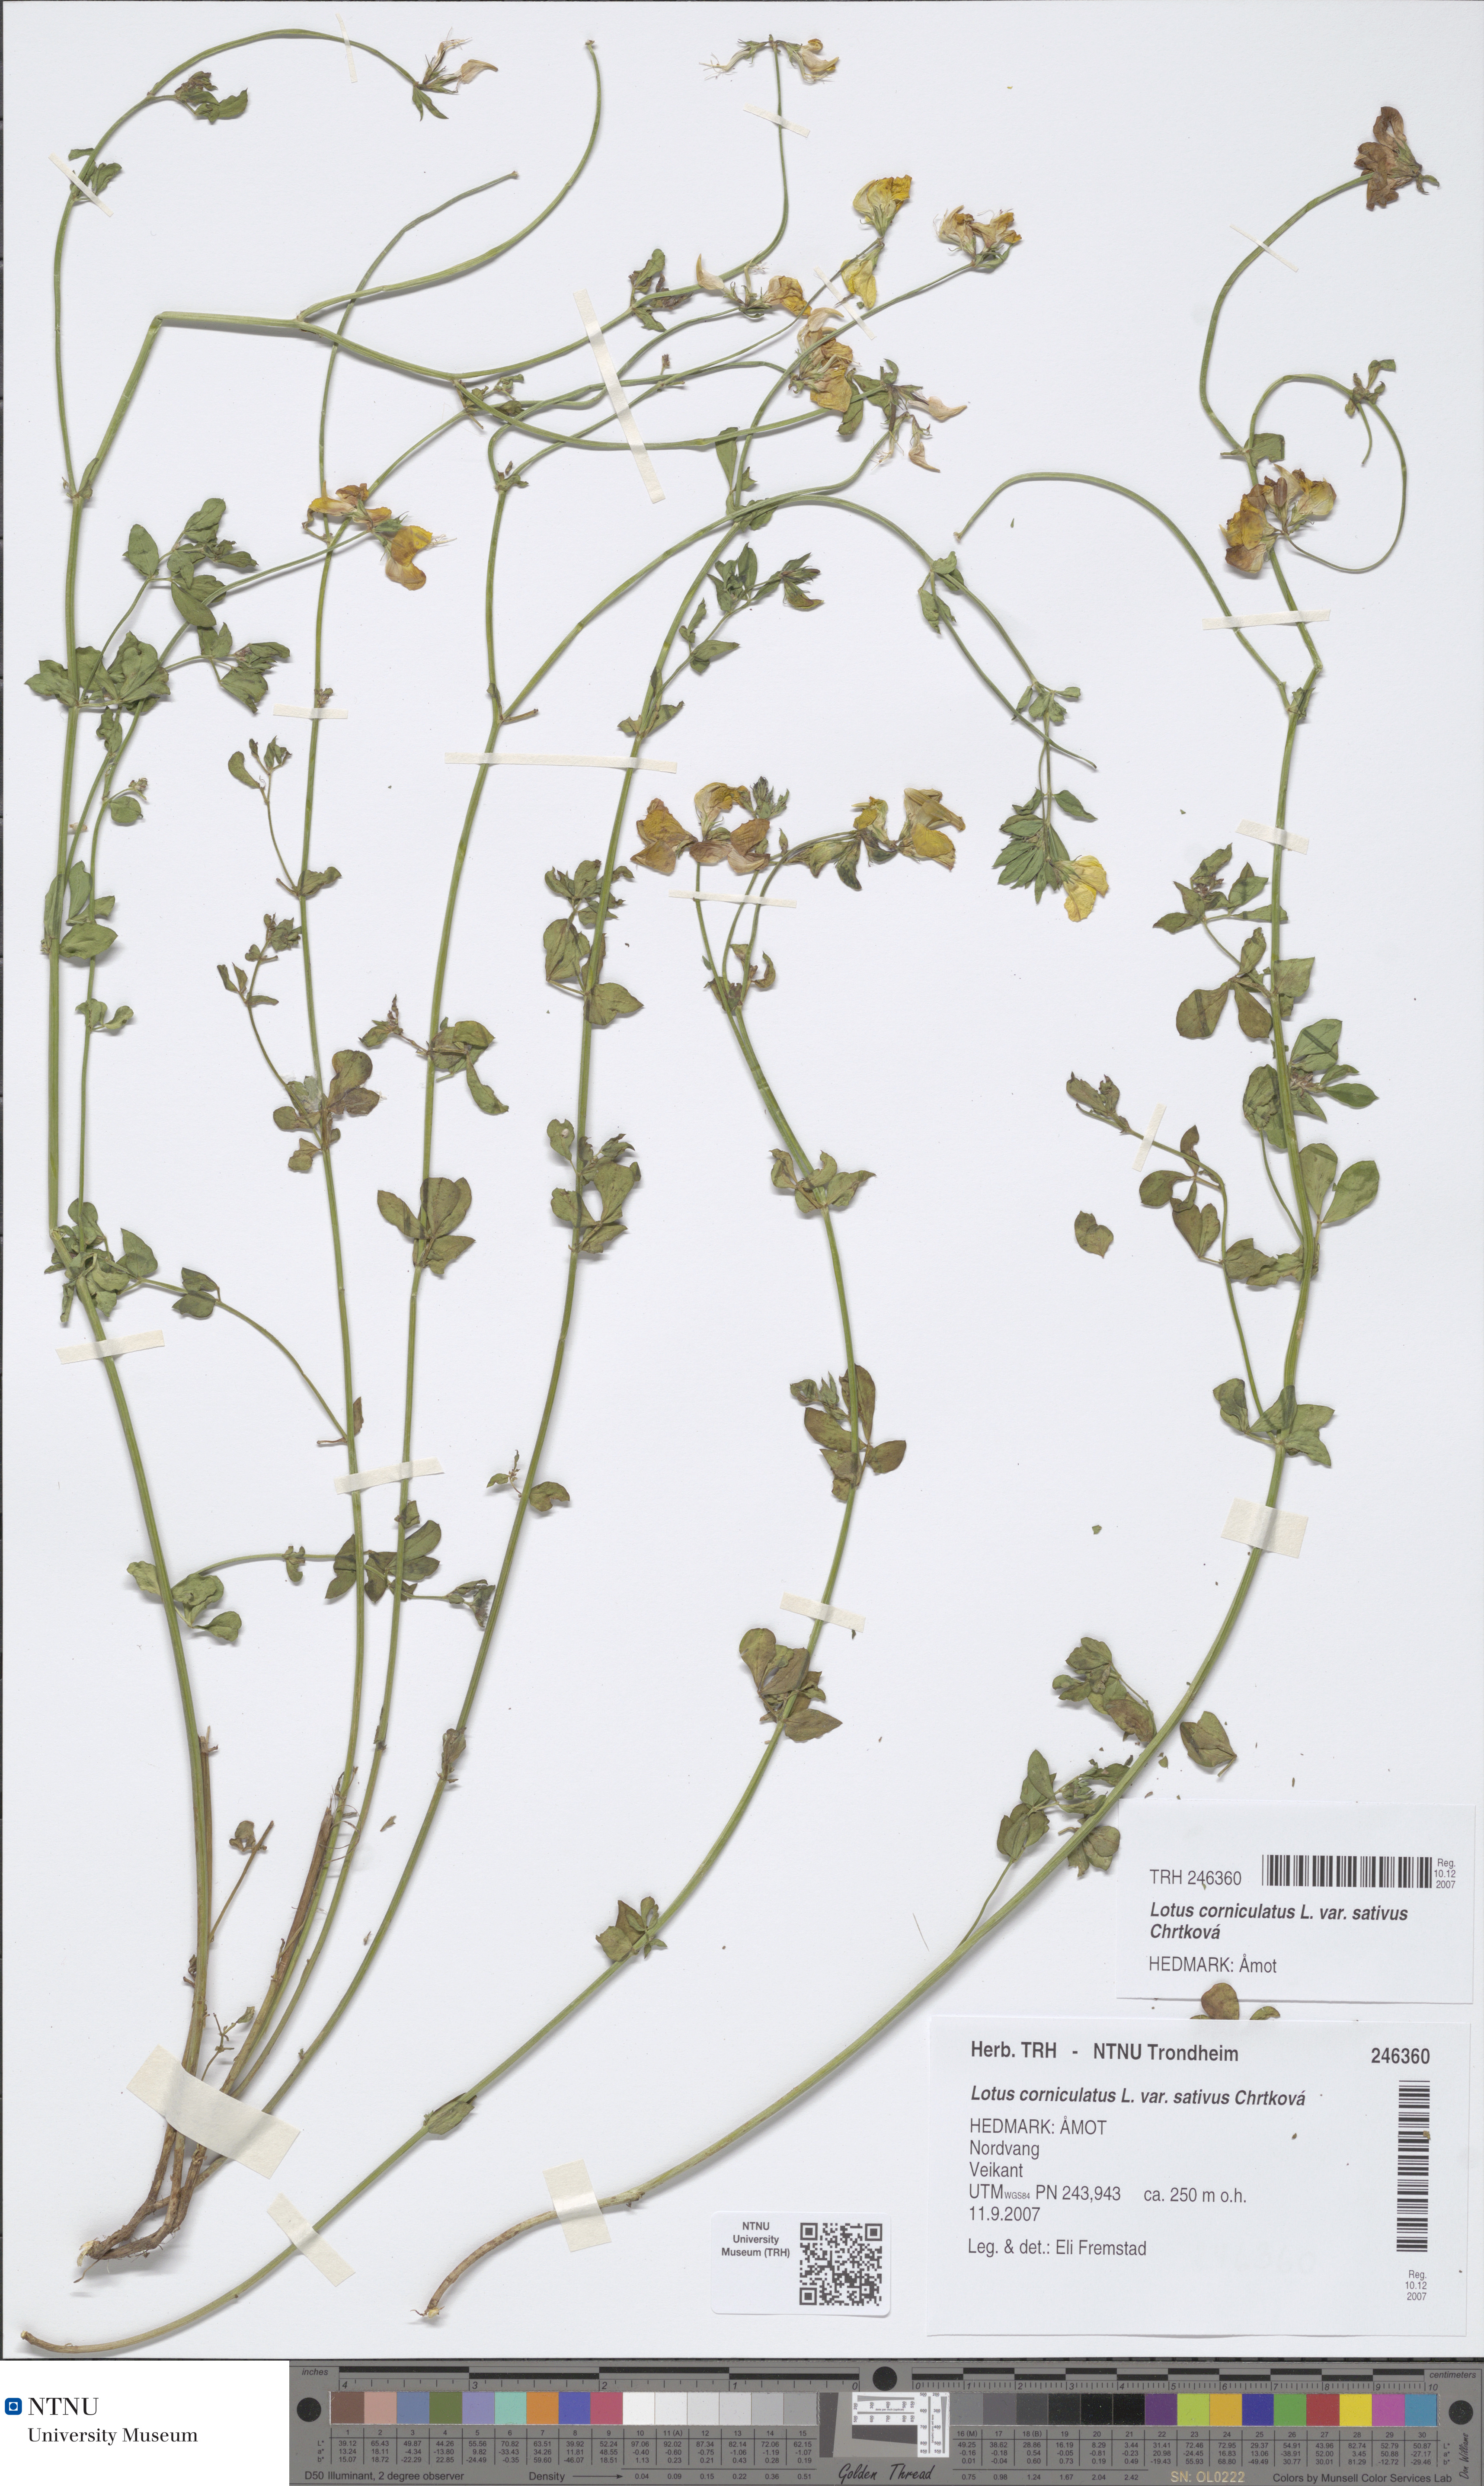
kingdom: Plantae
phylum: Tracheophyta
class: Magnoliopsida
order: Fabales
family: Fabaceae
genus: Lotus
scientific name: Lotus corniculatus
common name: Common bird's-foot-trefoil
